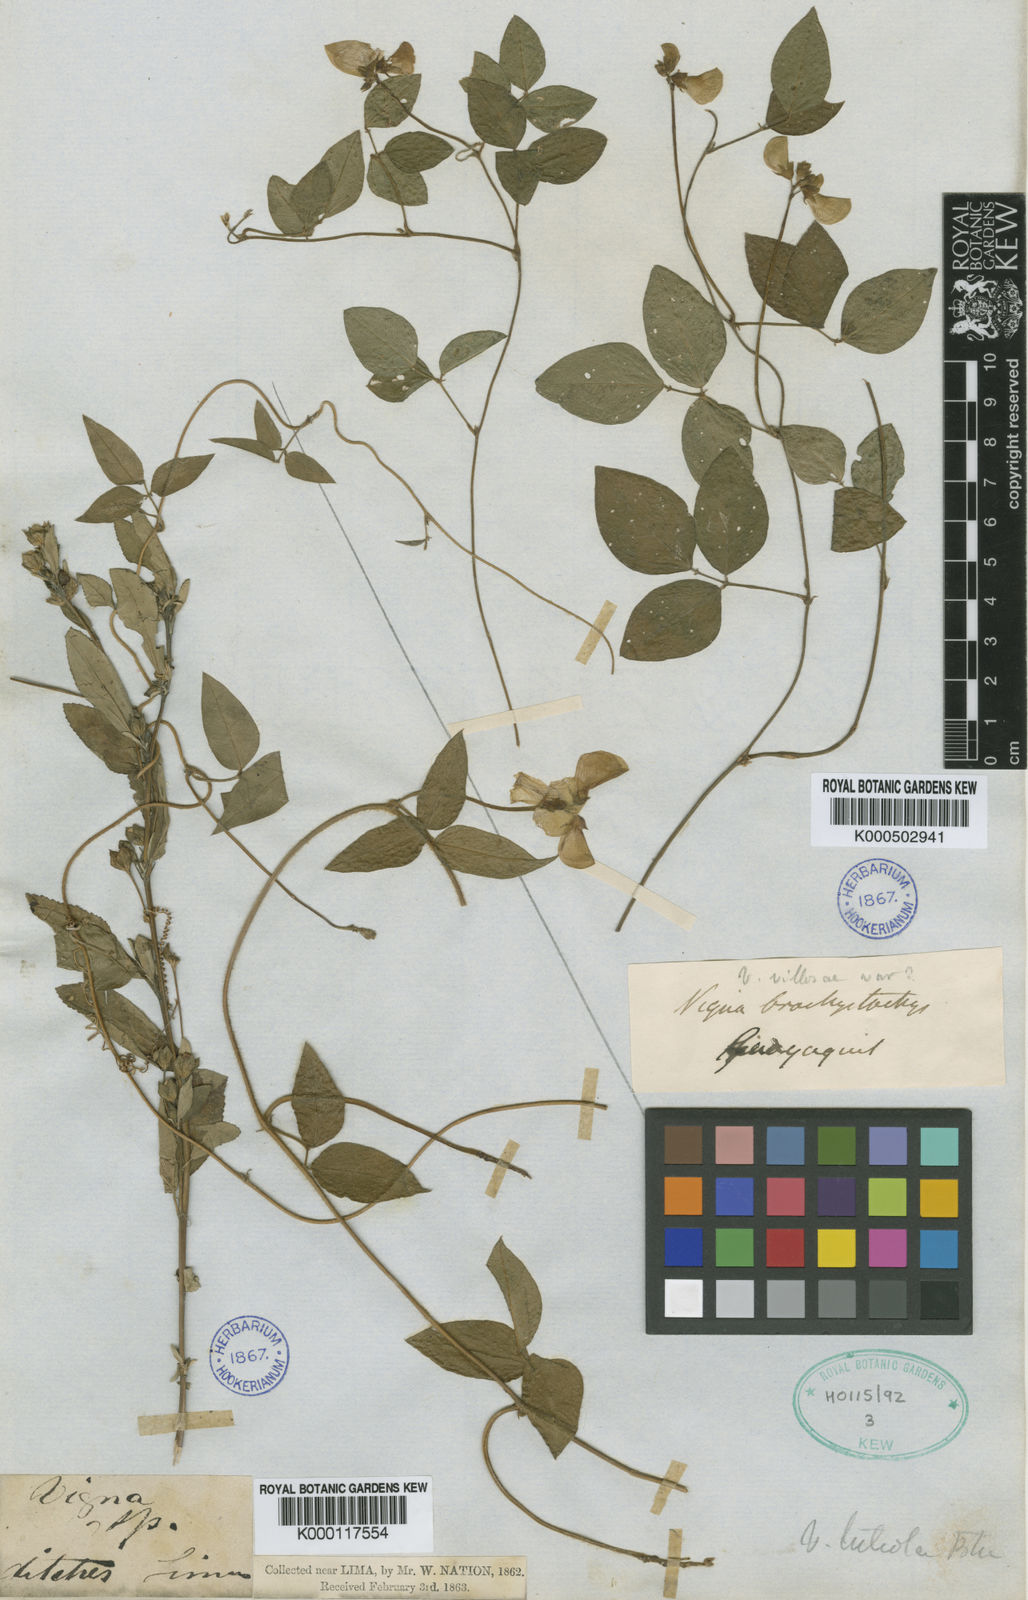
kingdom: Plantae
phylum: Tracheophyta
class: Magnoliopsida
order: Fabales
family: Fabaceae
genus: Vigna
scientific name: Vigna luteola
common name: Hairypod cowpea
